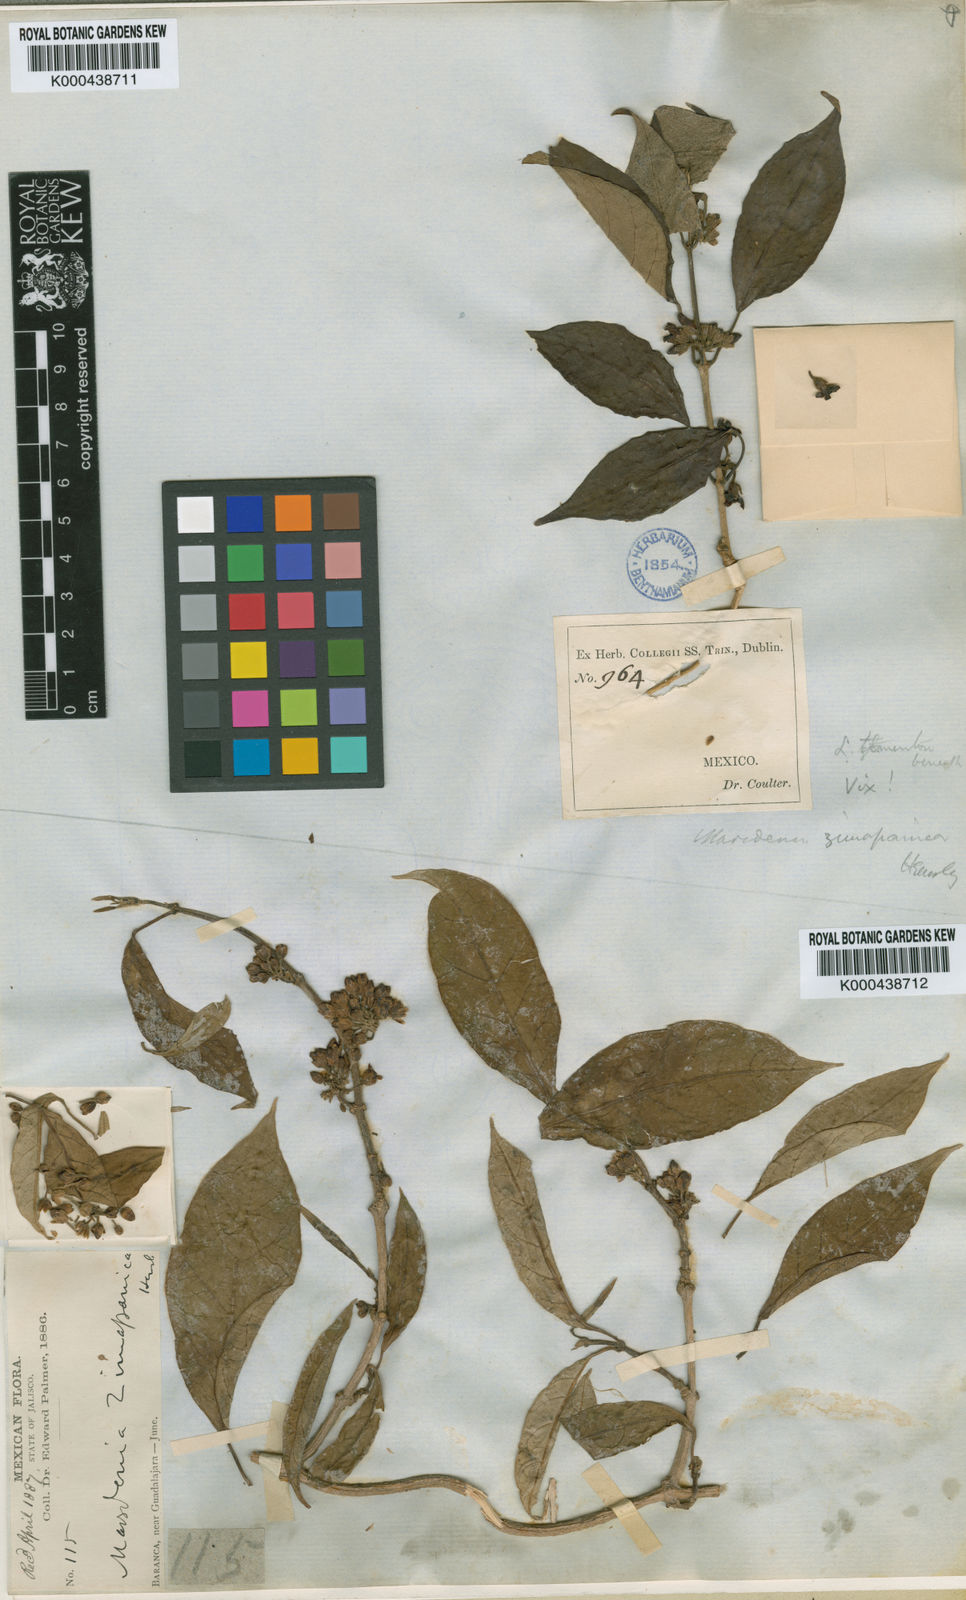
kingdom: Plantae
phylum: Tracheophyta
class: Magnoliopsida
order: Gentianales
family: Apocynaceae
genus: Ruehssia
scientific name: Ruehssia zimapanica
